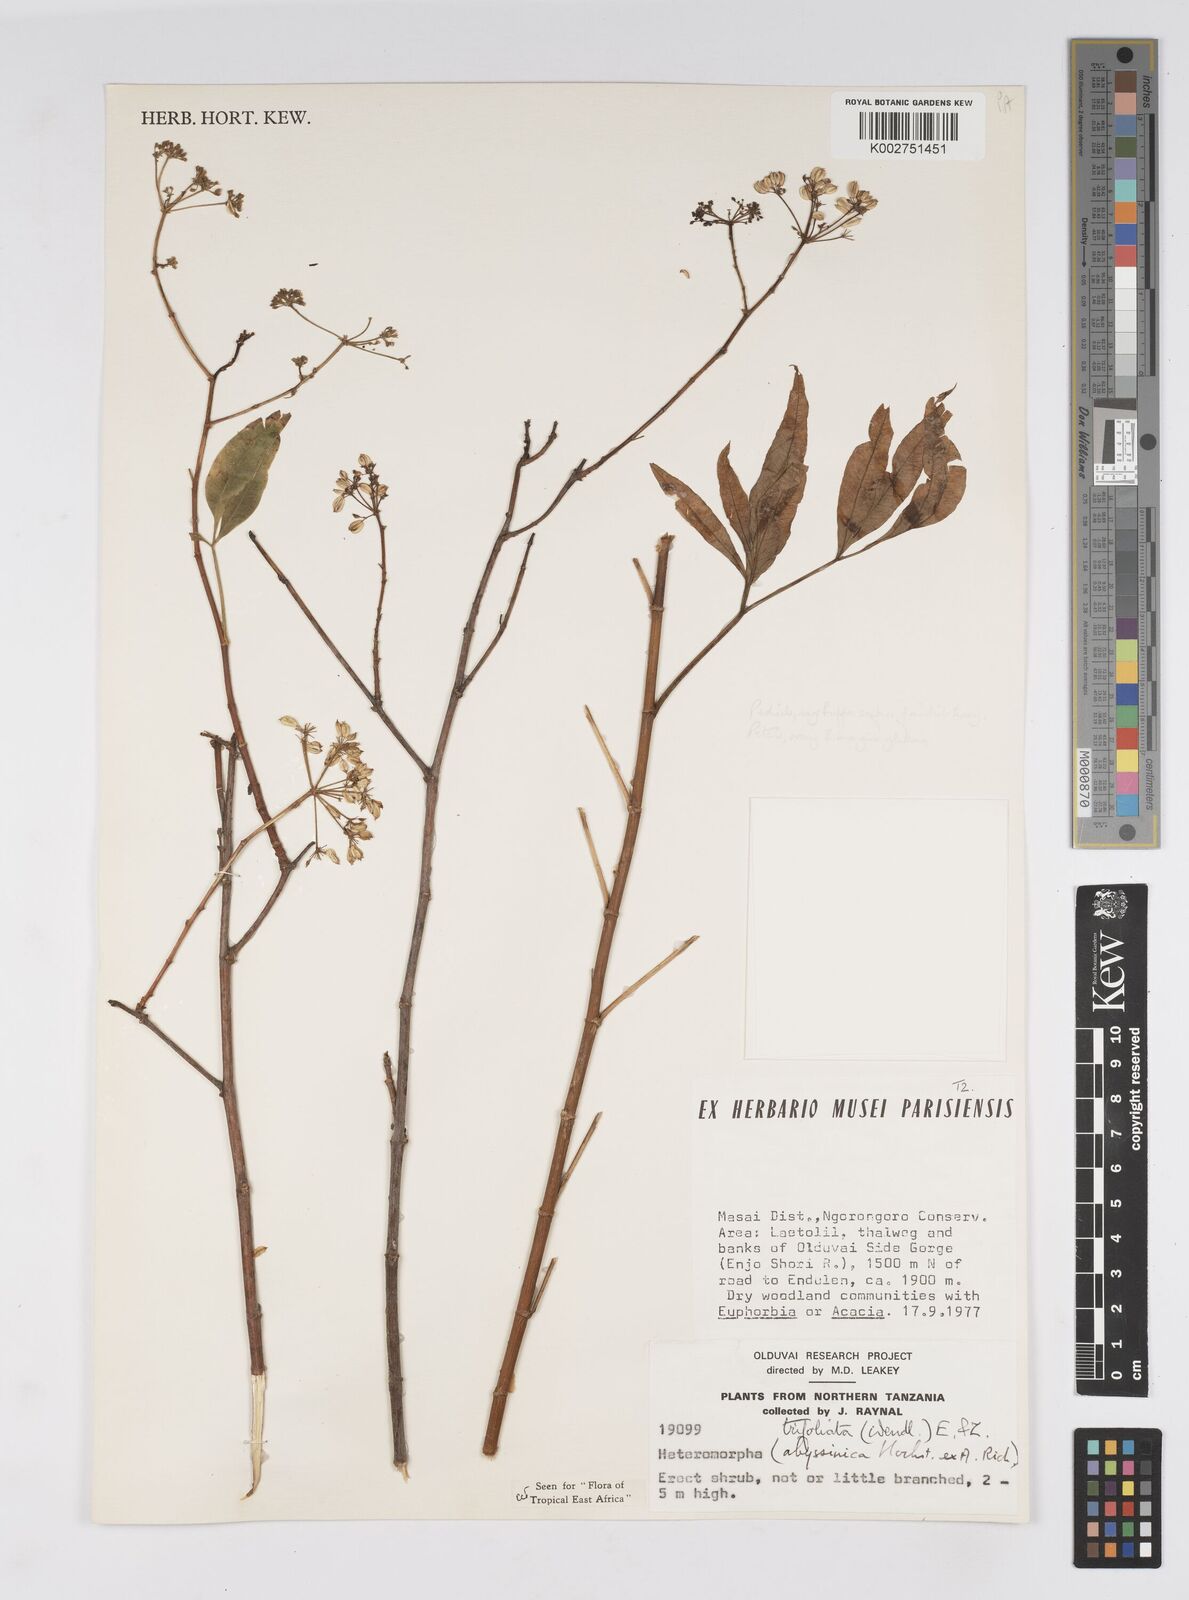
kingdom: Plantae
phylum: Tracheophyta
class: Magnoliopsida
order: Apiales
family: Apiaceae
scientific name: Apiaceae
